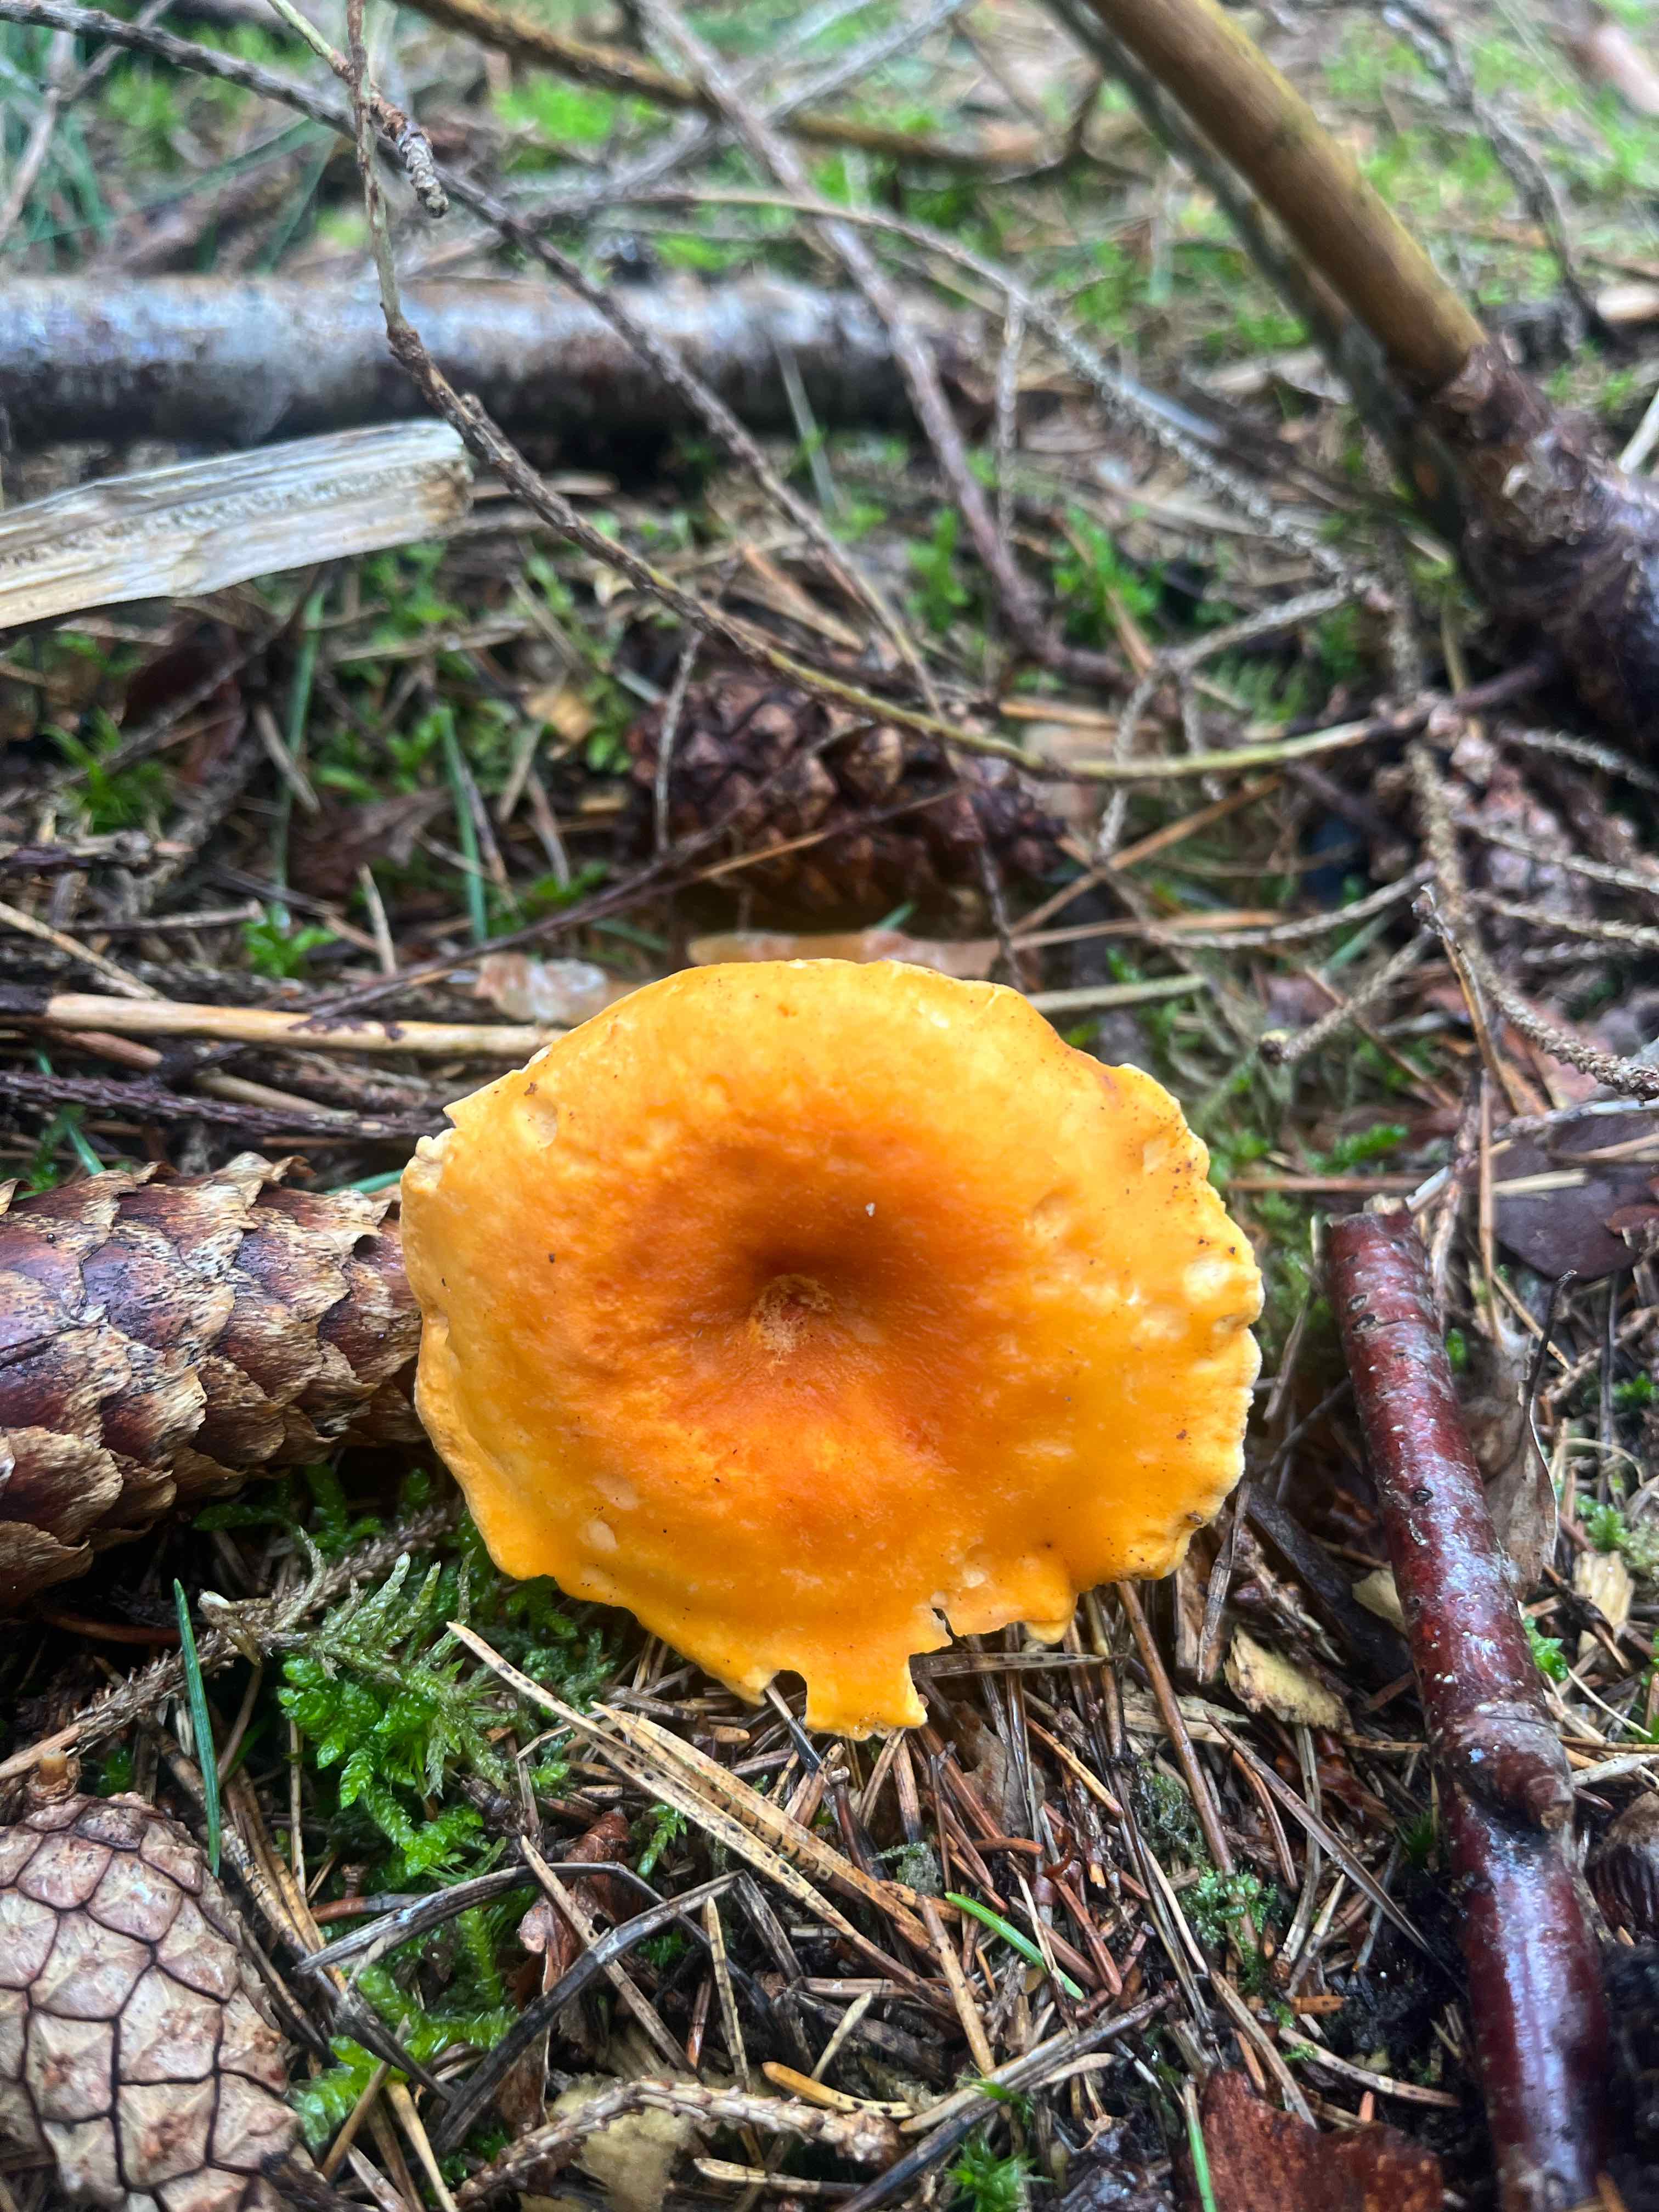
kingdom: Fungi
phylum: Basidiomycota
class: Agaricomycetes
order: Boletales
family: Hygrophoropsidaceae
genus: Hygrophoropsis
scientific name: Hygrophoropsis aurantiaca
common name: almindelig orangekantarel
